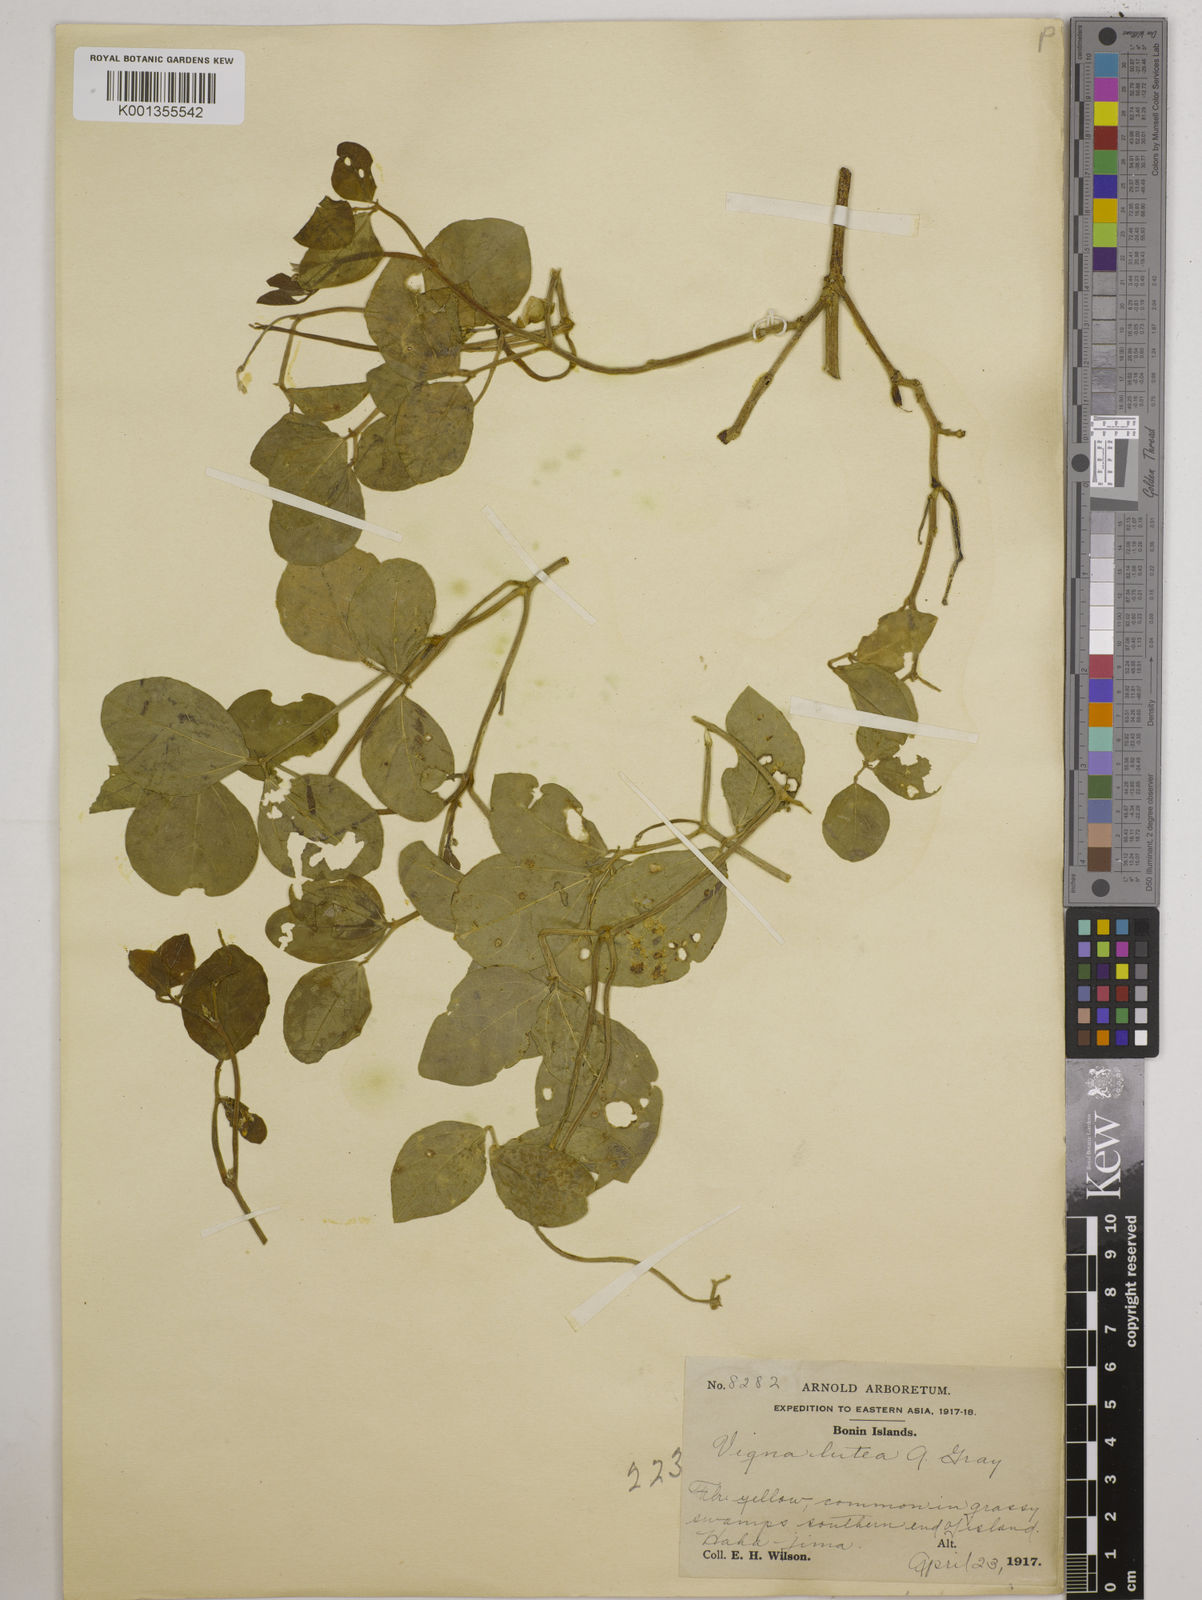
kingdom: Plantae
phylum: Tracheophyta
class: Magnoliopsida
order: Fabales
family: Fabaceae
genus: Vigna
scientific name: Vigna marina
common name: Dune-bean
